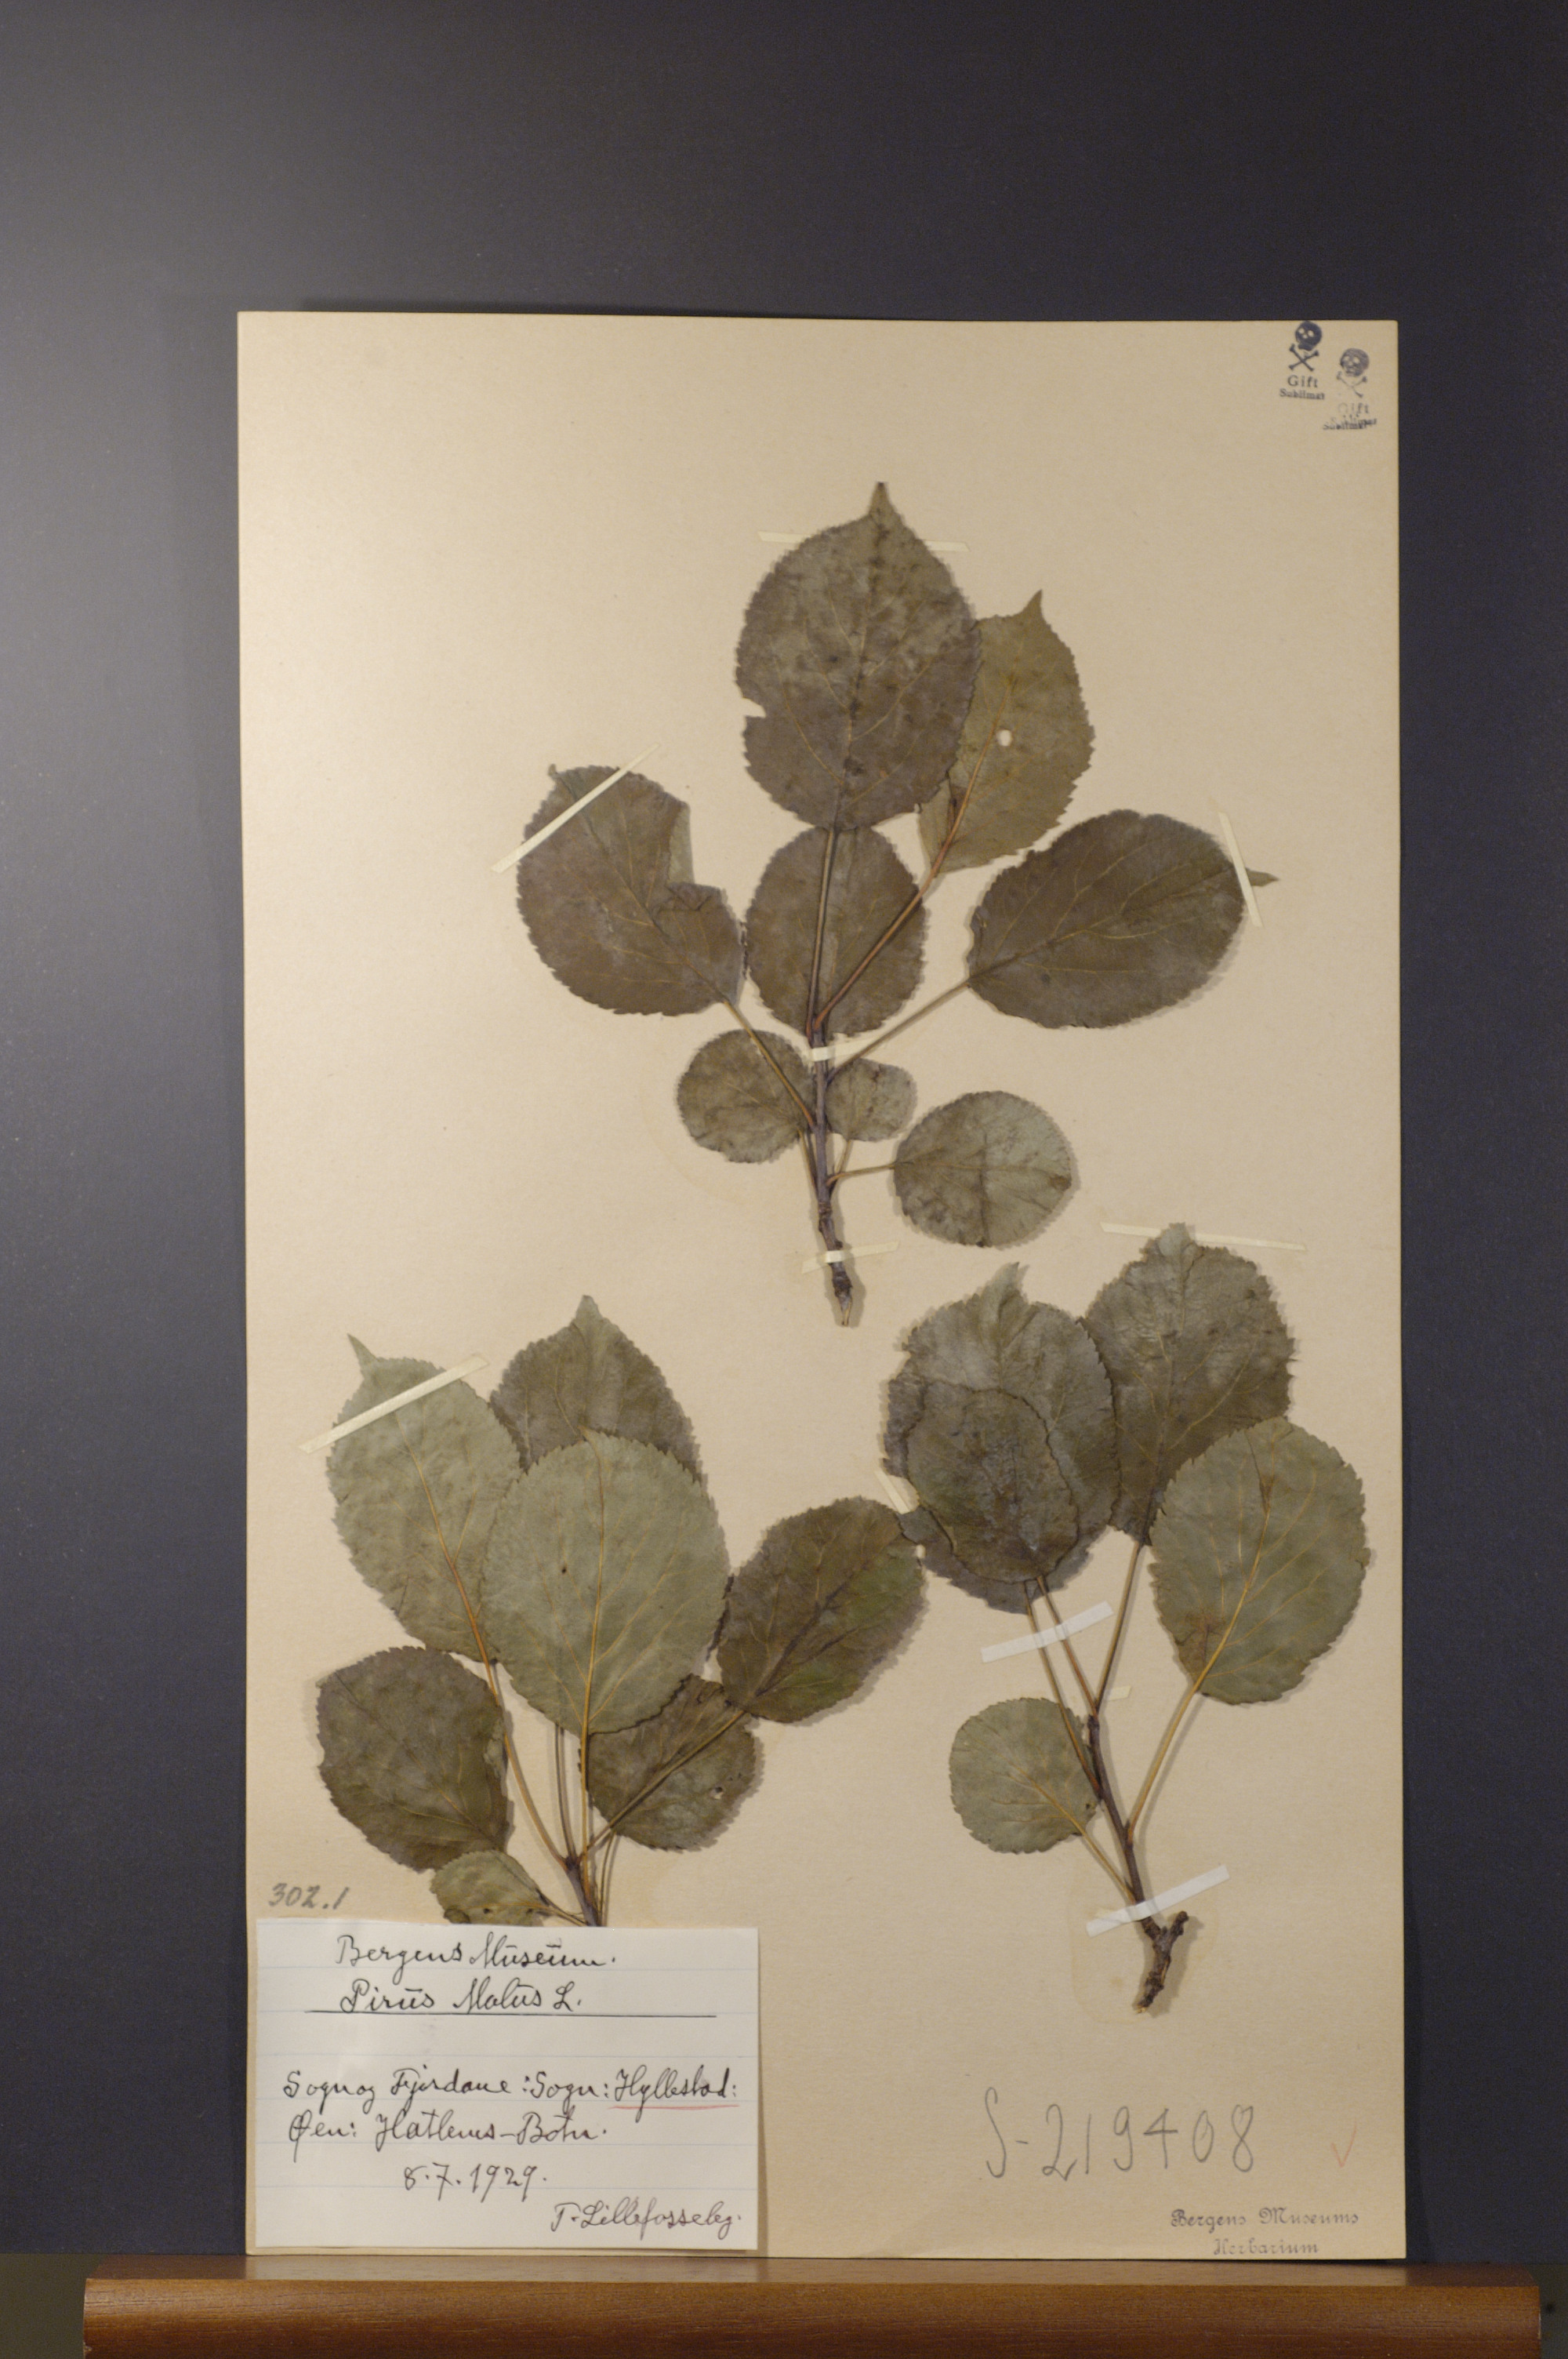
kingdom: Plantae
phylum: Tracheophyta
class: Magnoliopsida
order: Rosales
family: Rosaceae
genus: Malus
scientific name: Malus domestica
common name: Apple
